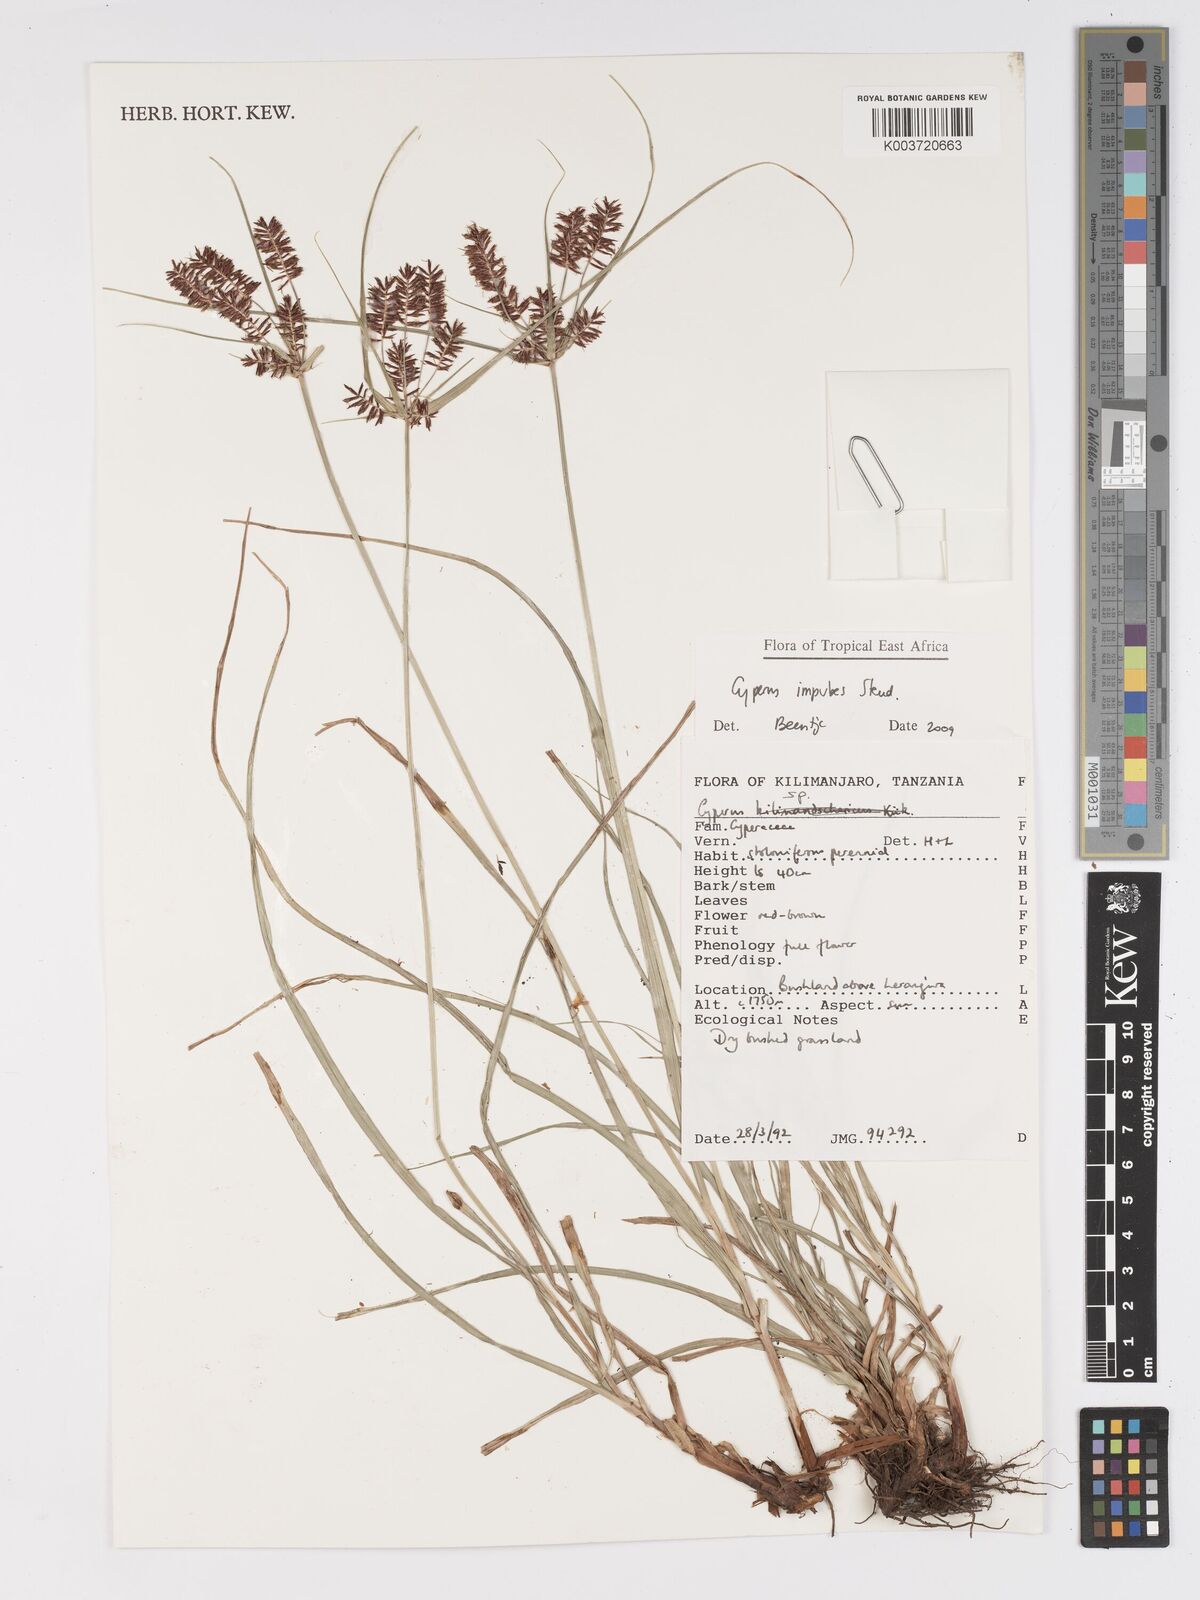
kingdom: Plantae
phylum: Tracheophyta
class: Liliopsida
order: Poales
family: Cyperaceae
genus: Cyperus
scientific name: Cyperus impubes
